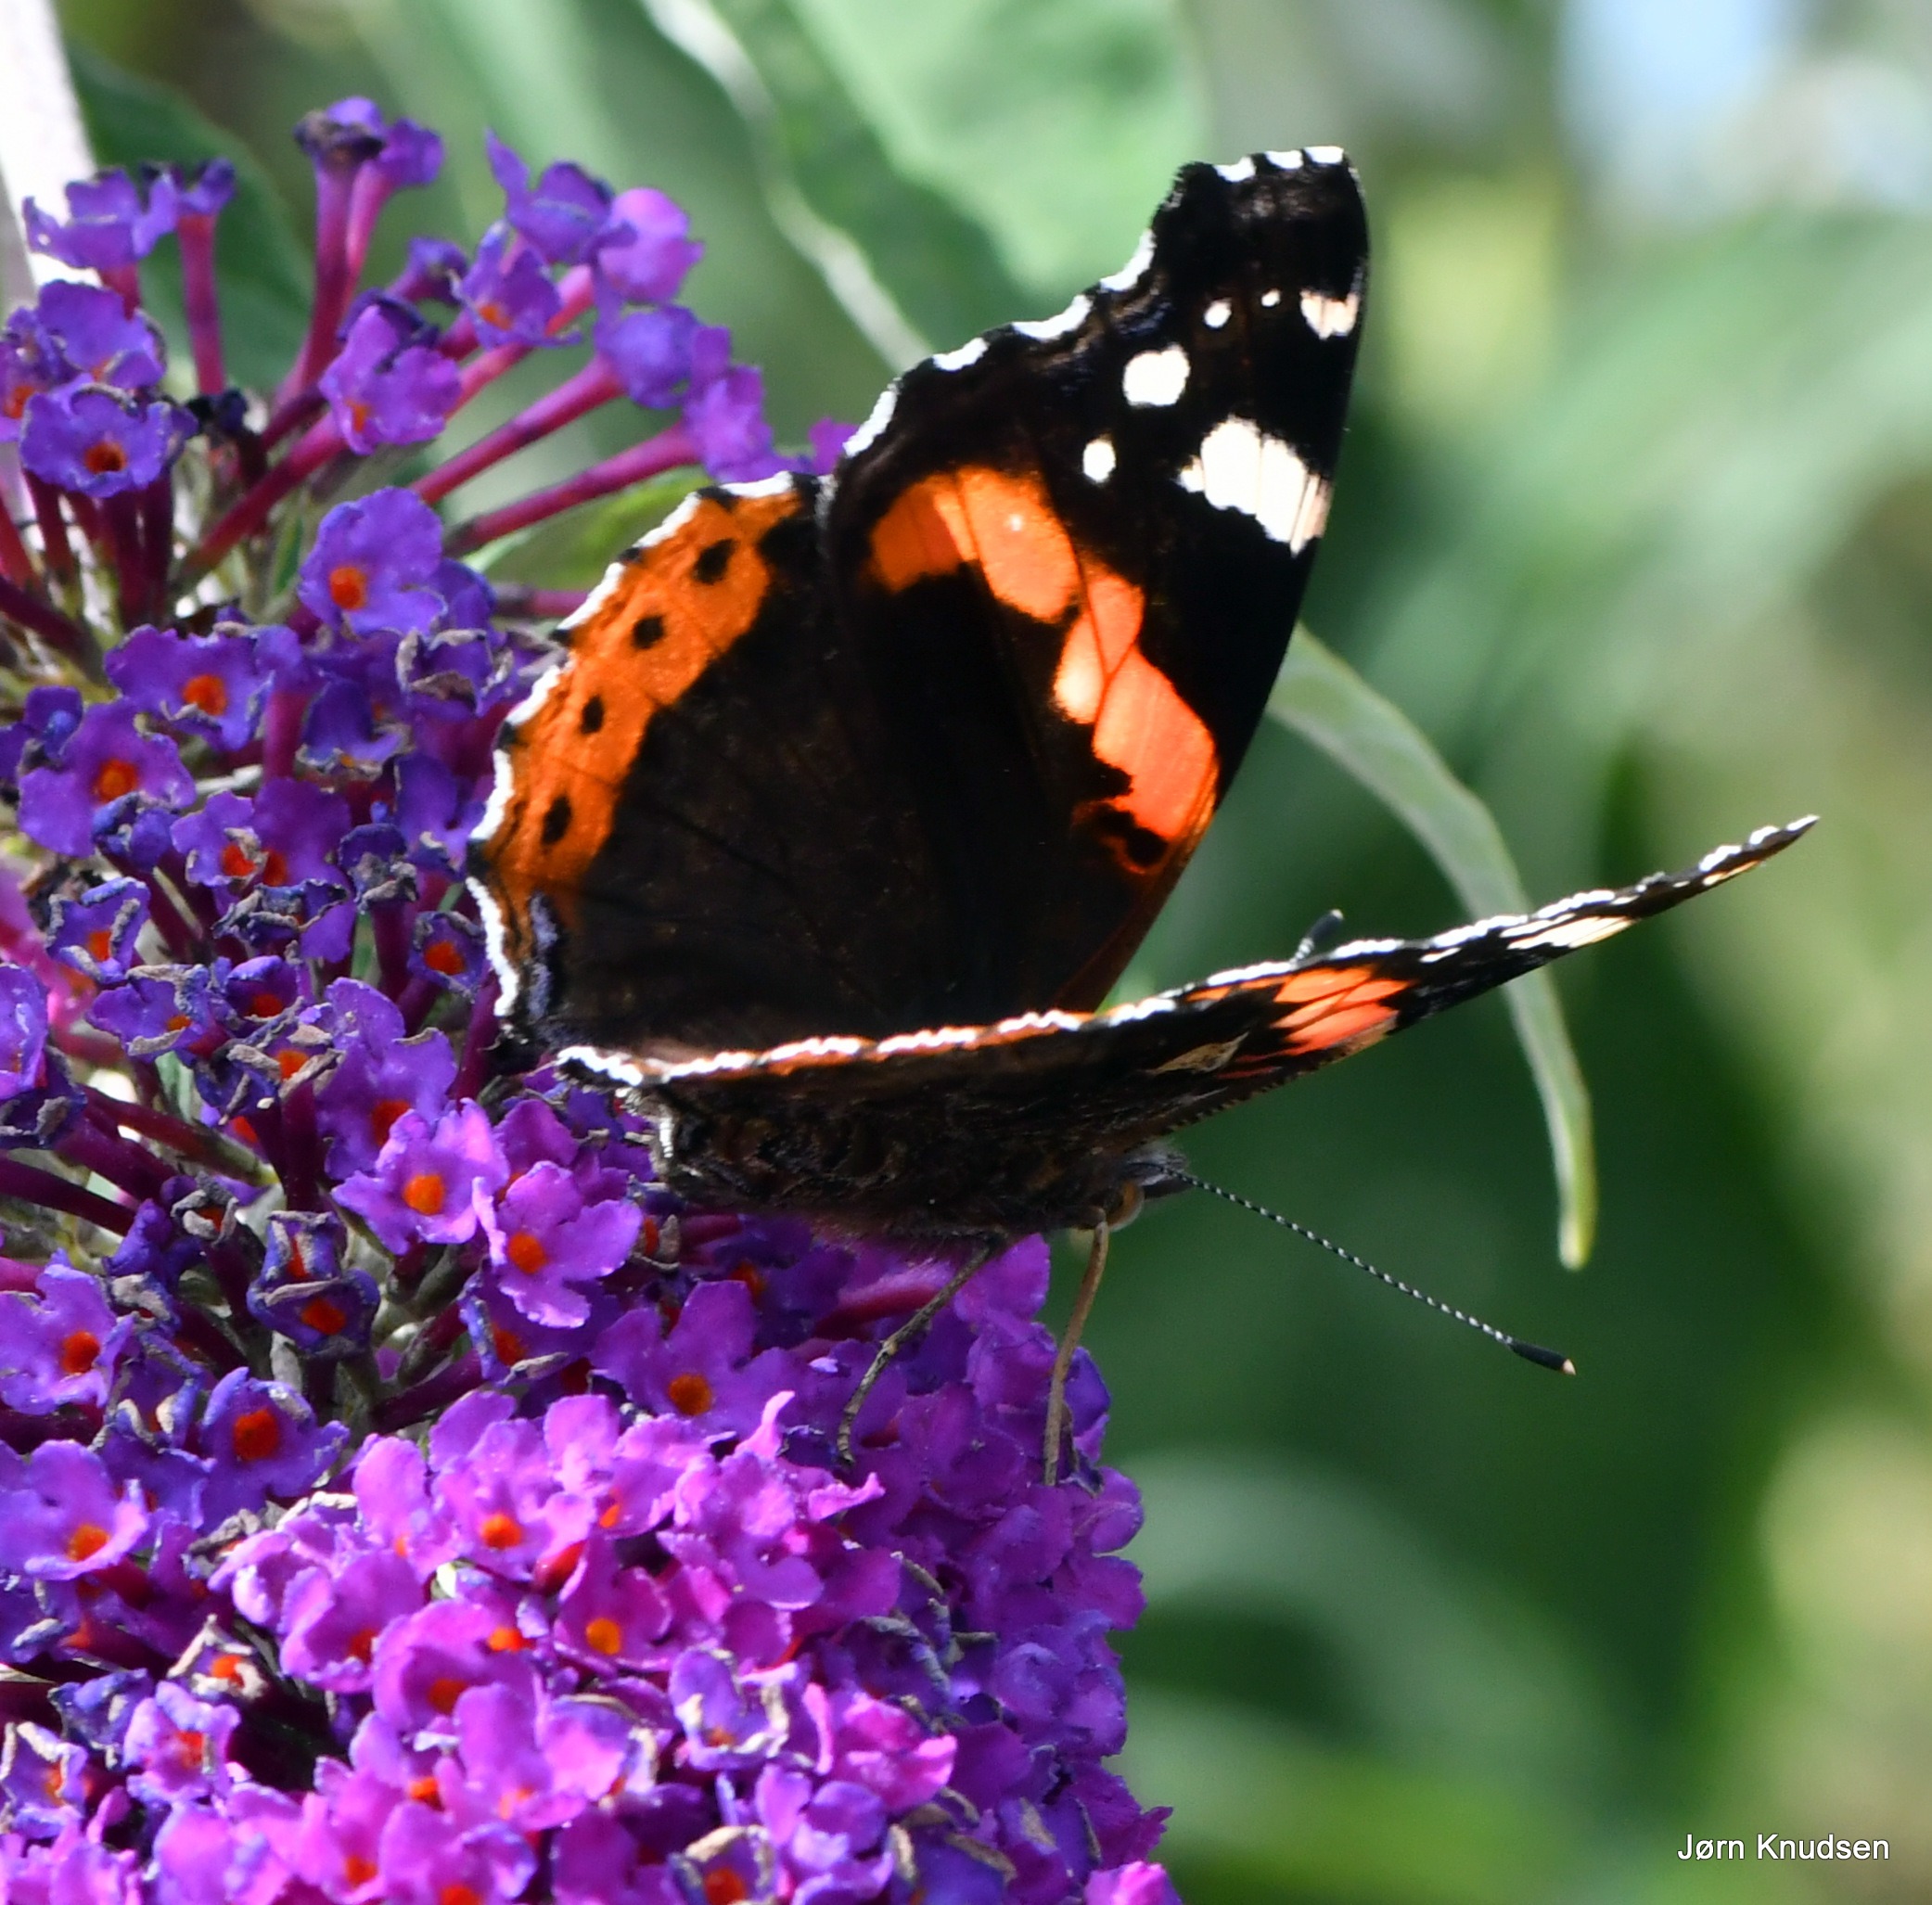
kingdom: Animalia
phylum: Arthropoda
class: Insecta
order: Lepidoptera
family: Nymphalidae
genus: Vanessa
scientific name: Vanessa atalanta
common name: Admiral
